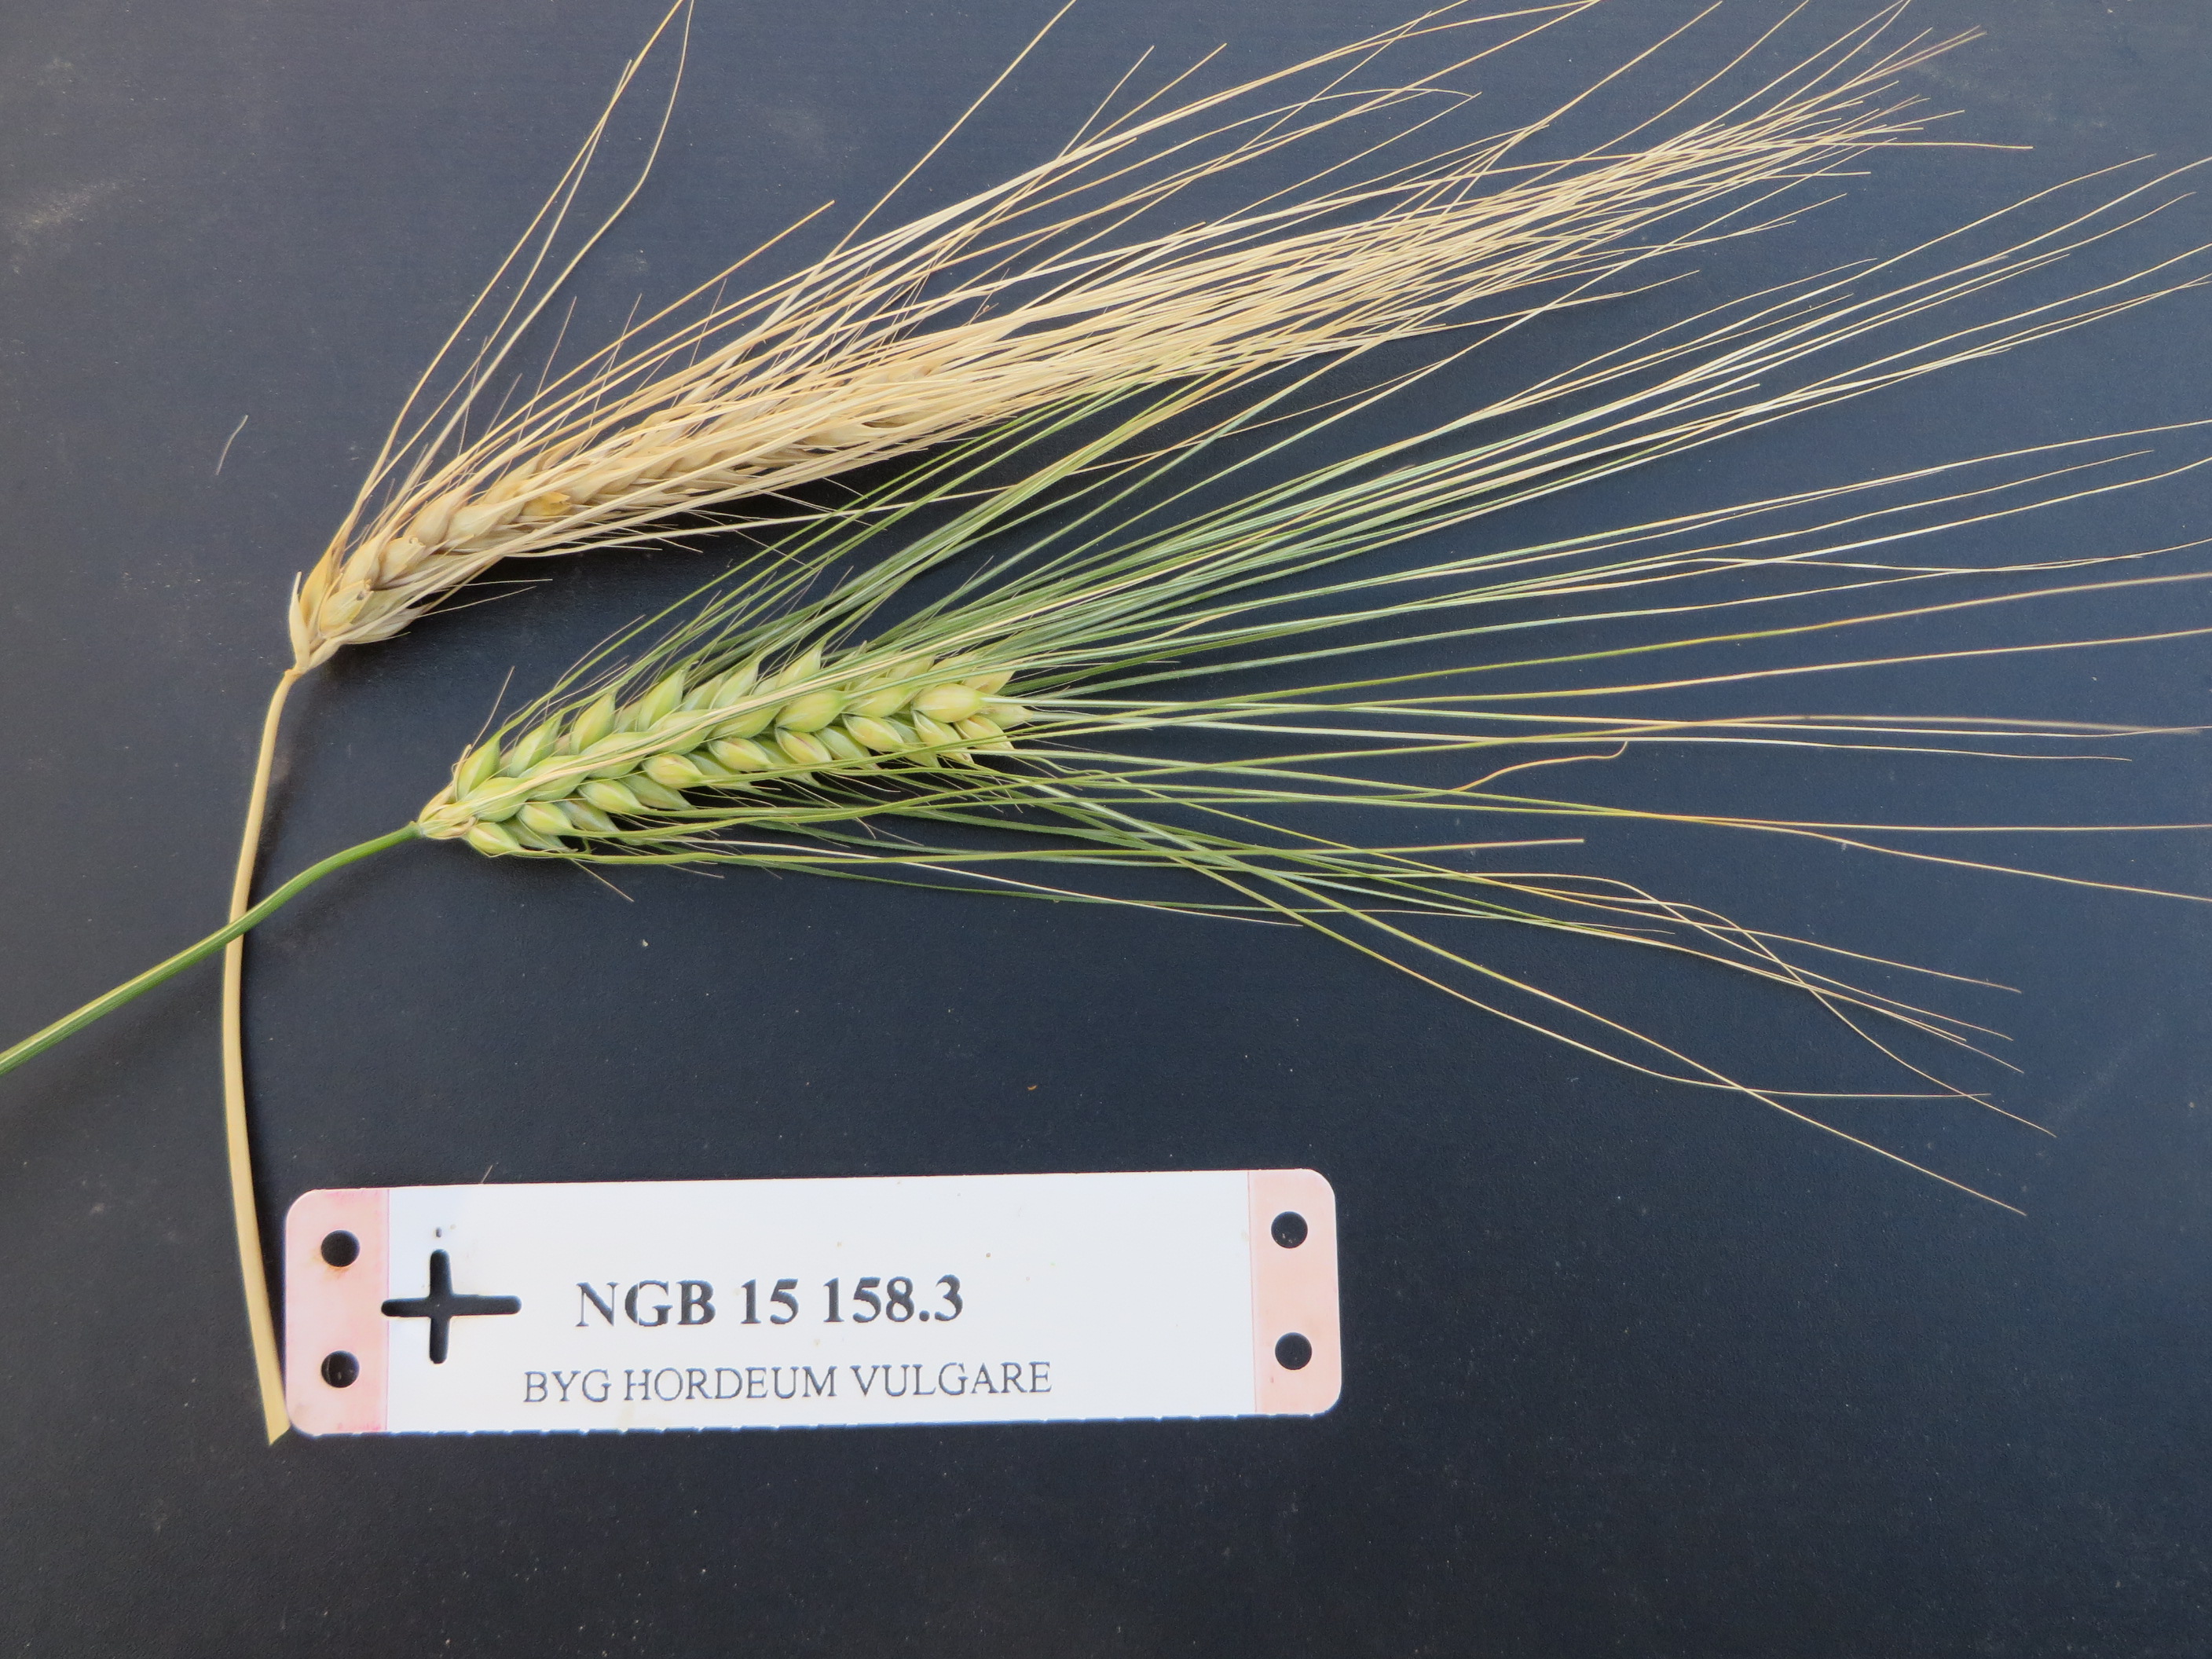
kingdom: Plantae
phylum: Tracheophyta
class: Liliopsida
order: Poales
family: Poaceae
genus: Hordeum
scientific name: Hordeum vulgare
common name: Common barley
